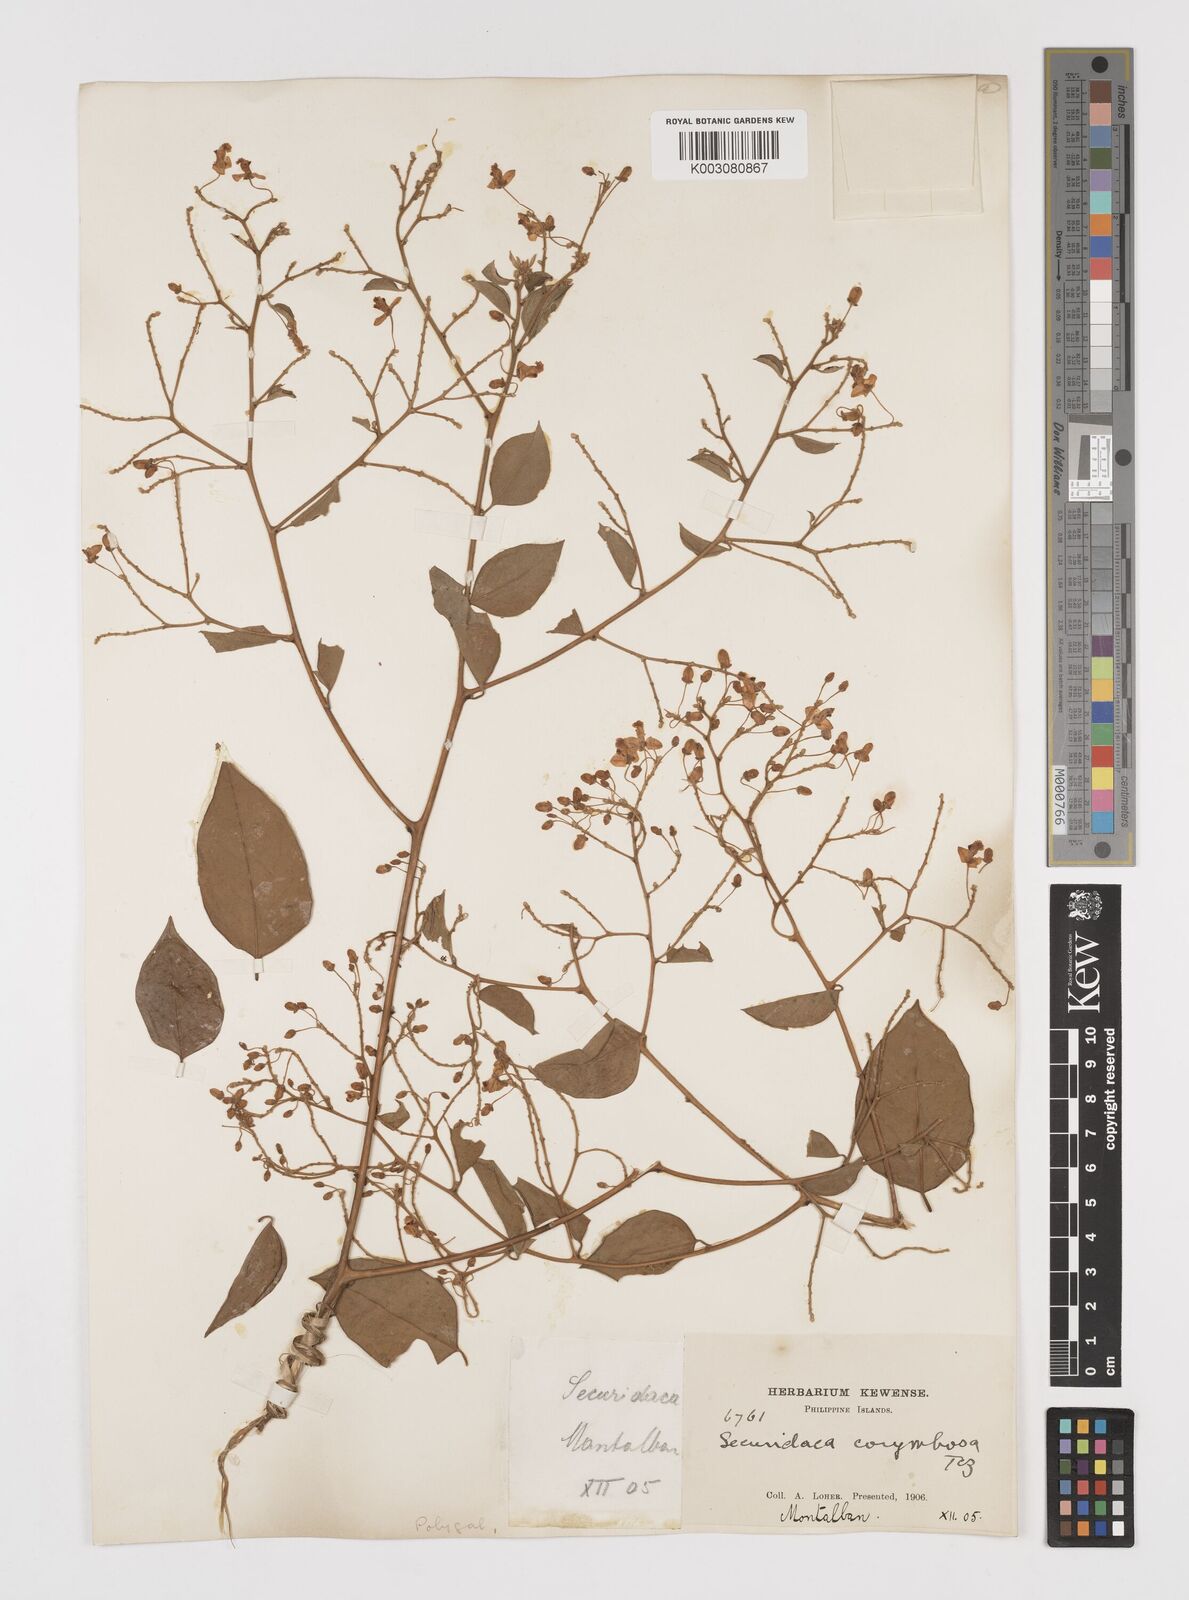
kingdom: Plantae
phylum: Tracheophyta
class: Magnoliopsida
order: Fabales
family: Polygalaceae
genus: Securidaca
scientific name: Securidaca inappendiculata
